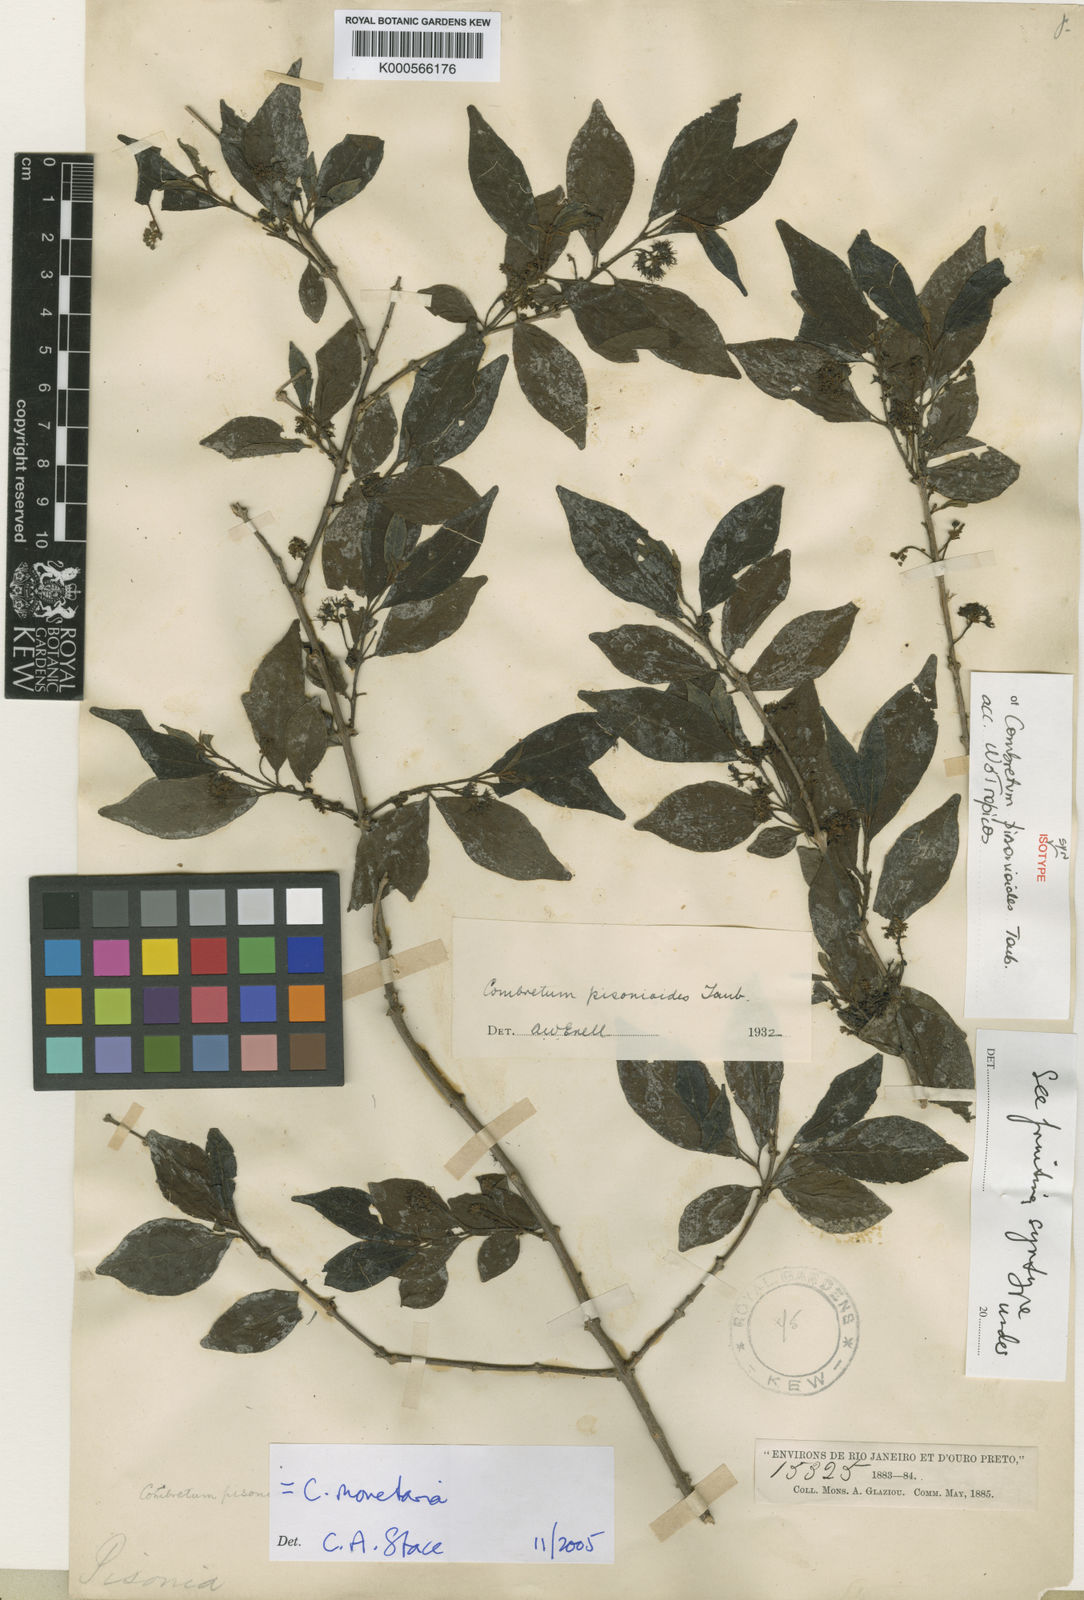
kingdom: Plantae
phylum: Tracheophyta
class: Magnoliopsida
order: Myrtales
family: Combretaceae
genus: Combretum
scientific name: Combretum monetaria
